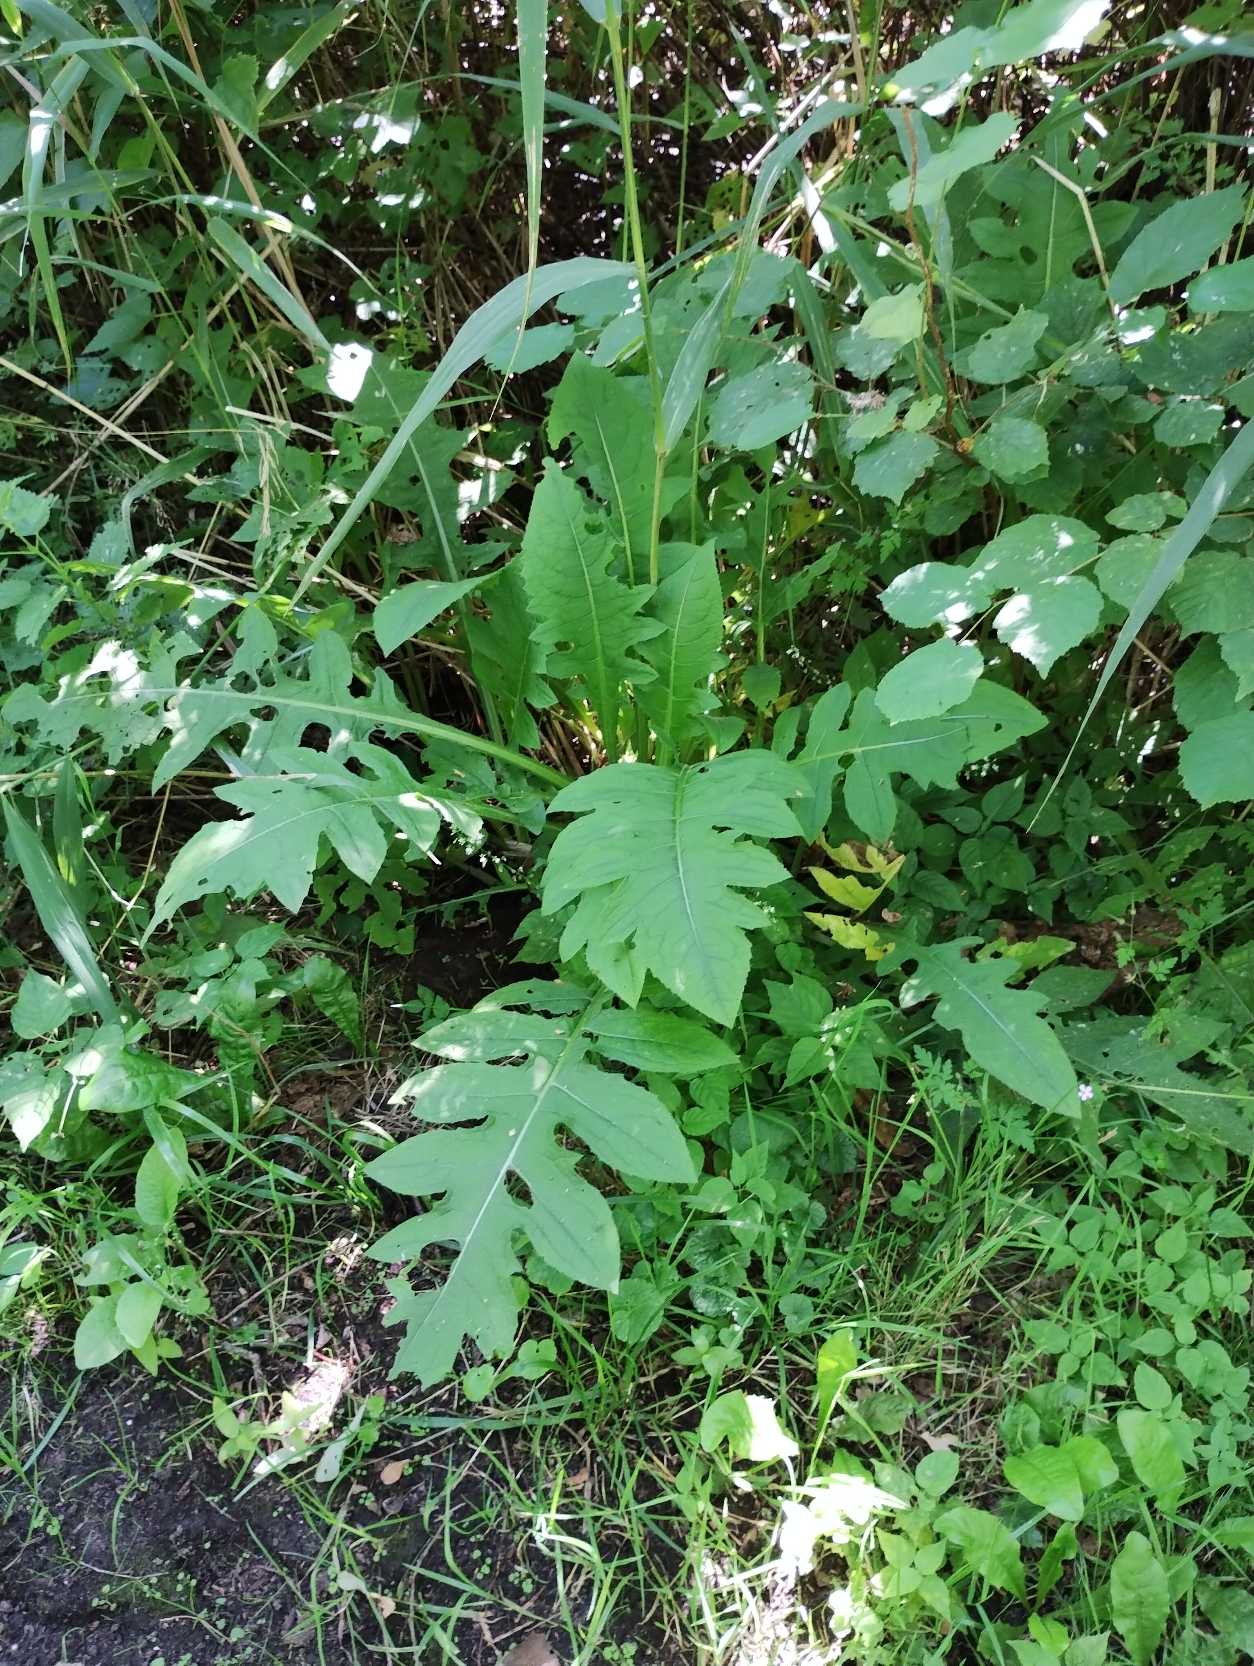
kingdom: Plantae
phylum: Tracheophyta
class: Magnoliopsida
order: Asterales
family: Asteraceae
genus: Cirsium
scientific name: Cirsium oleraceum
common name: Kål-tidsel
